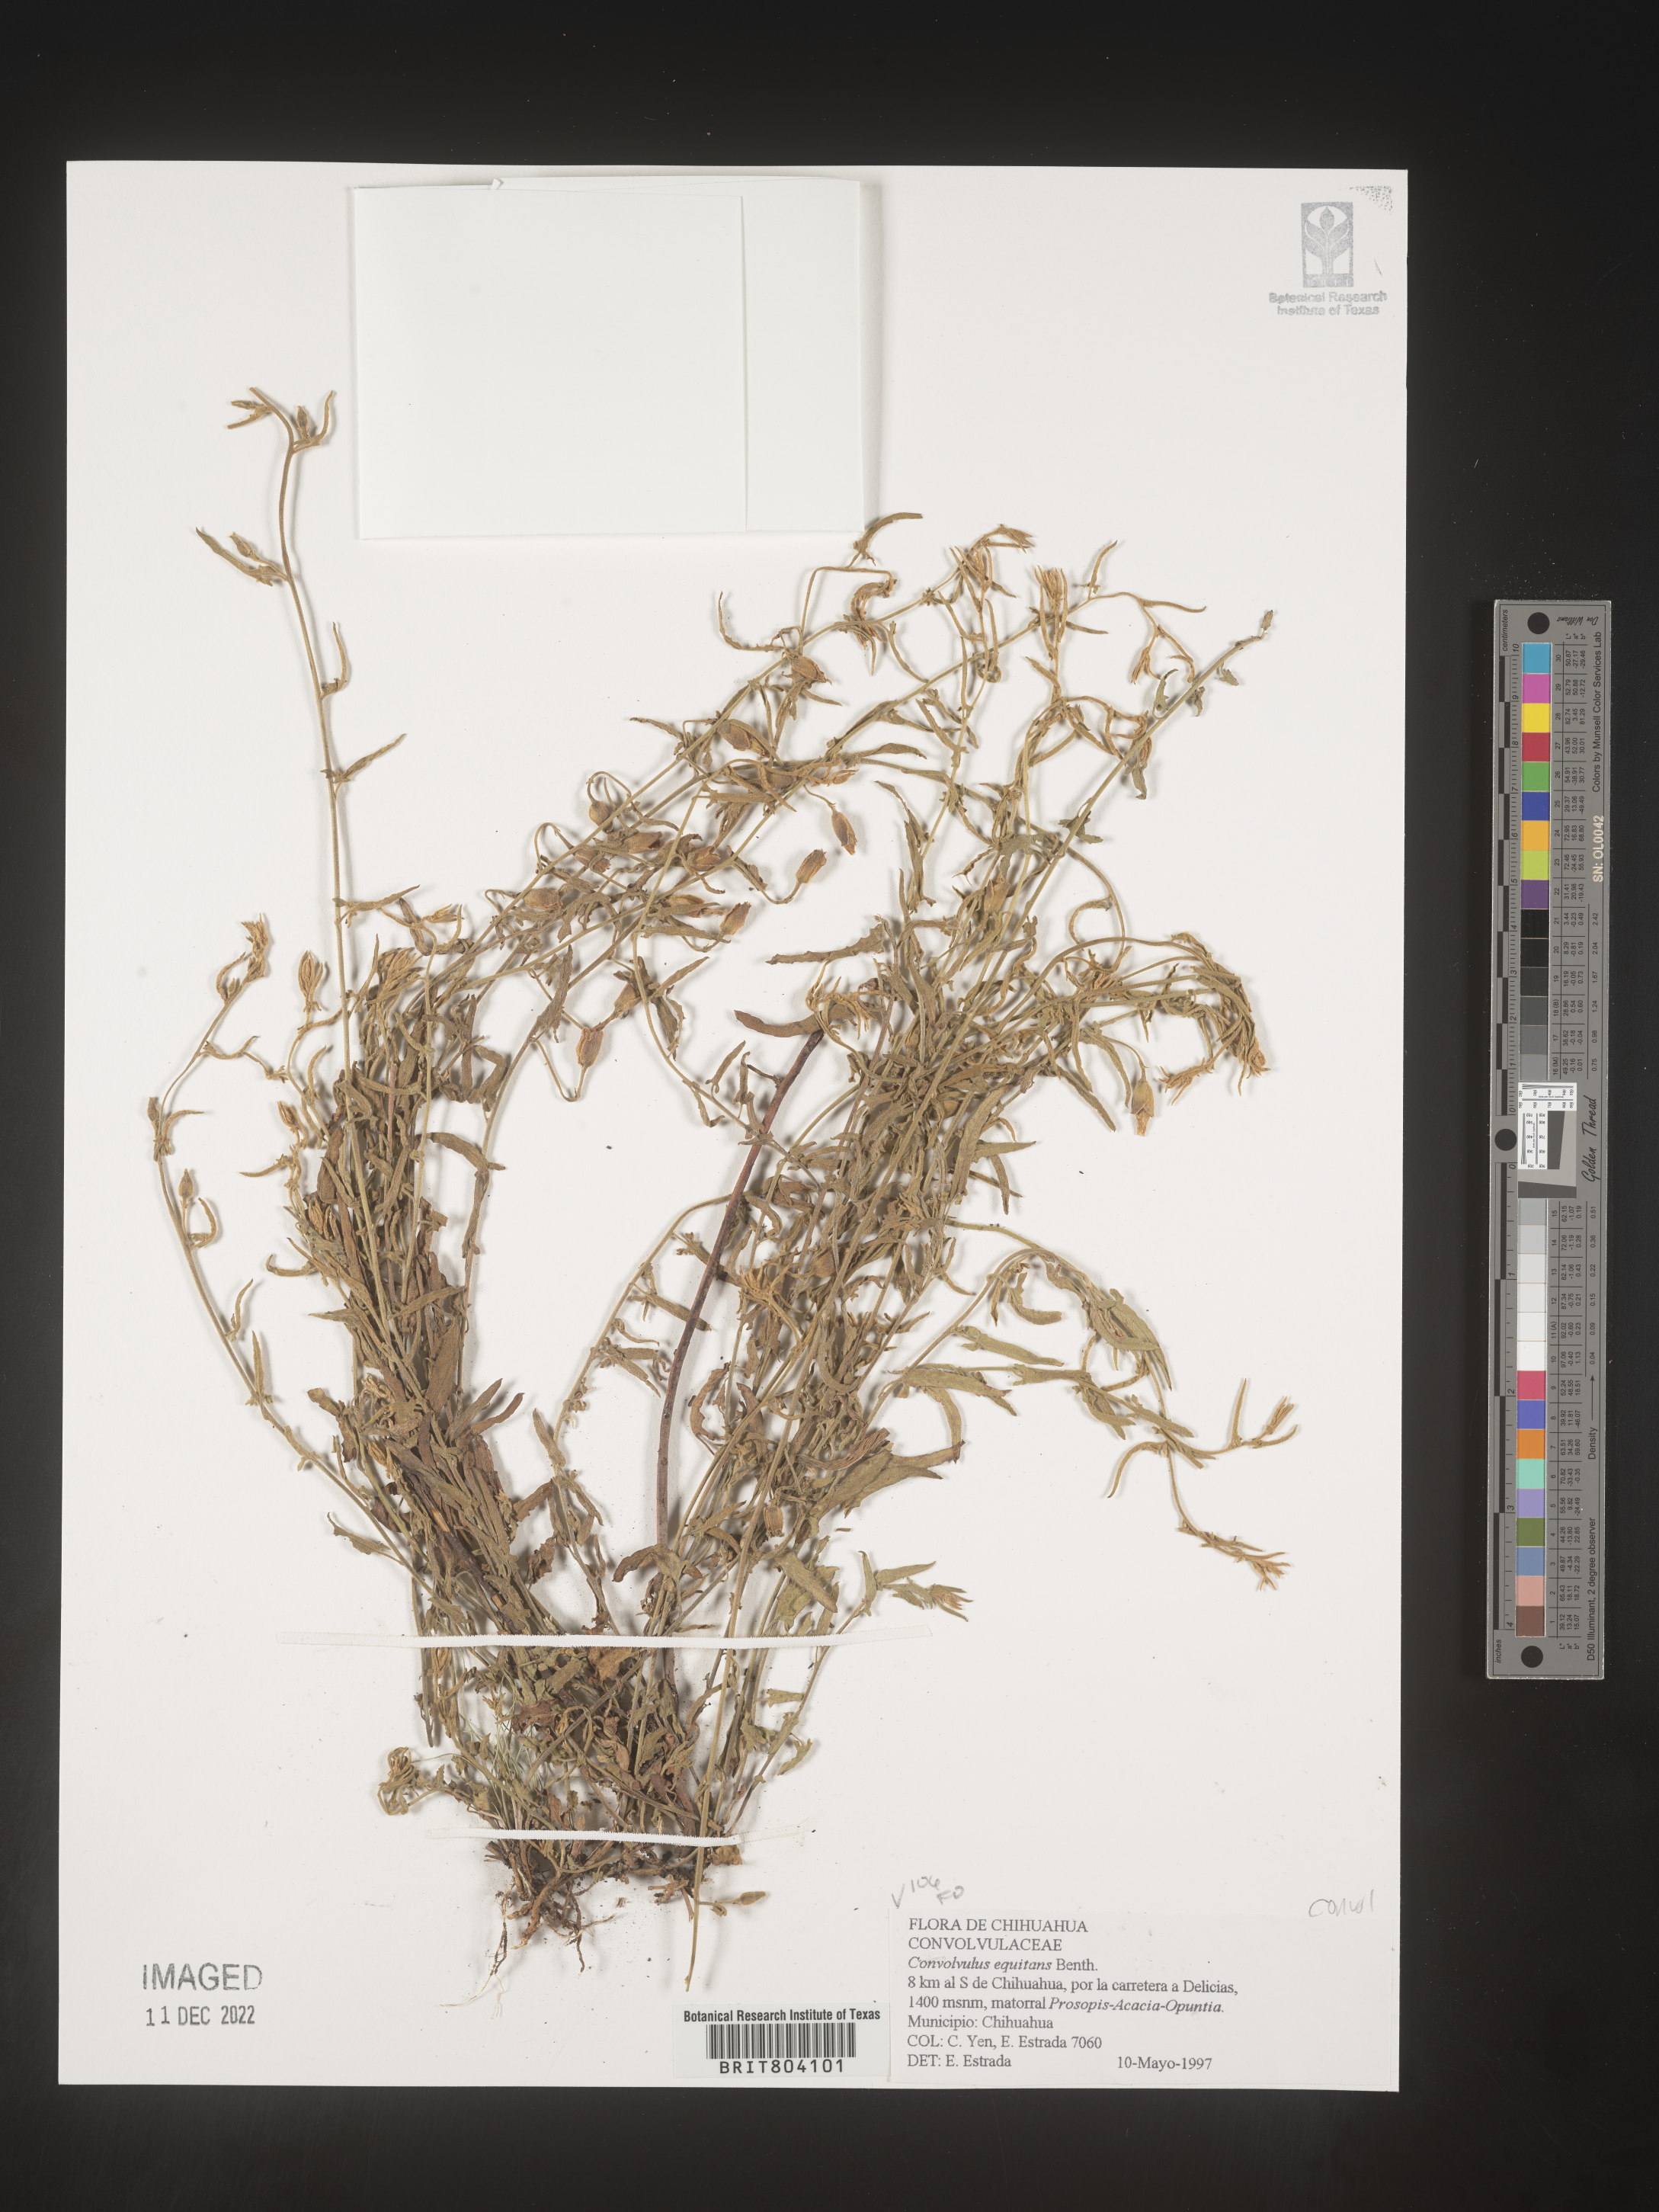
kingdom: Plantae
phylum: Tracheophyta
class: Magnoliopsida
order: Solanales
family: Convolvulaceae
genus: Convolvulus
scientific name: Convolvulus
